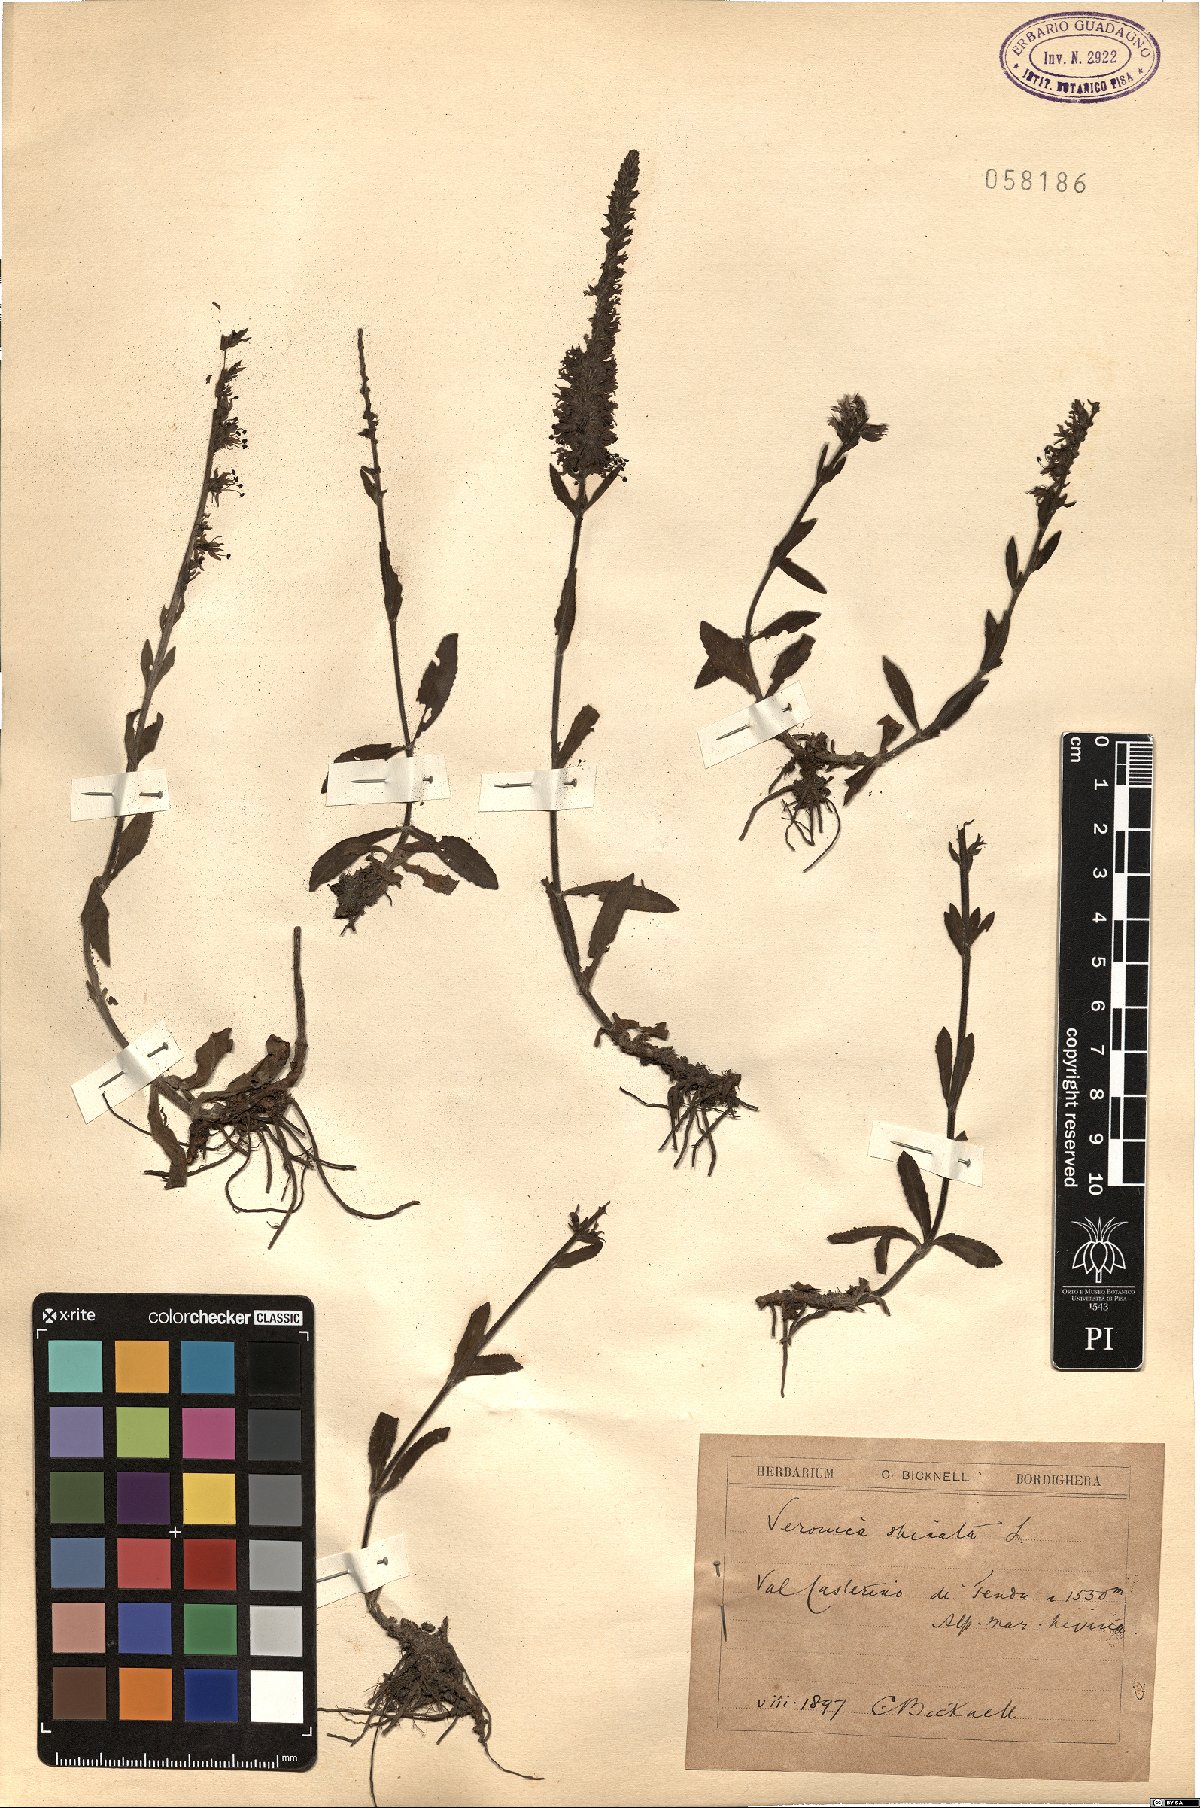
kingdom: Plantae
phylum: Tracheophyta
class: Magnoliopsida
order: Lamiales
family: Plantaginaceae
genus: Veronica
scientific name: Veronica spicata
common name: Spiked speedwell
